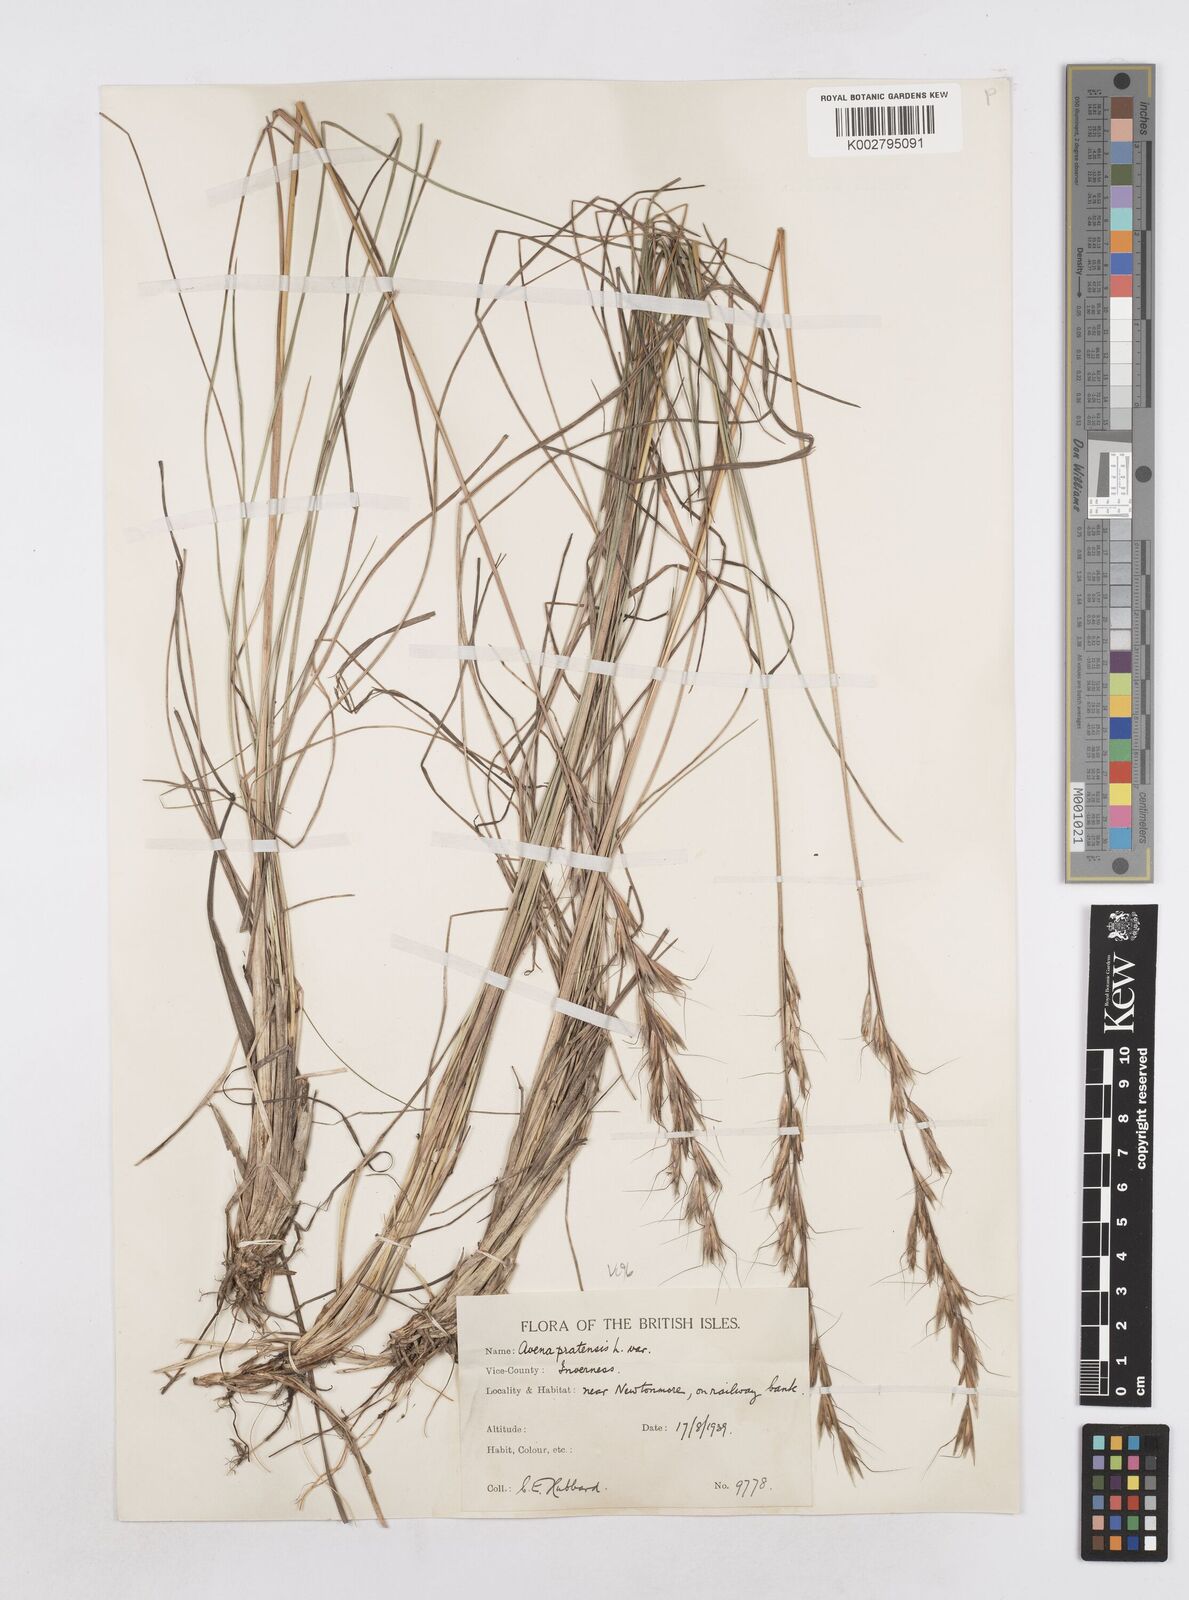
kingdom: Plantae
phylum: Tracheophyta
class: Liliopsida
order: Poales
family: Poaceae
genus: Helictochloa
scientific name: Helictochloa pratensis
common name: Meadow oat grass
